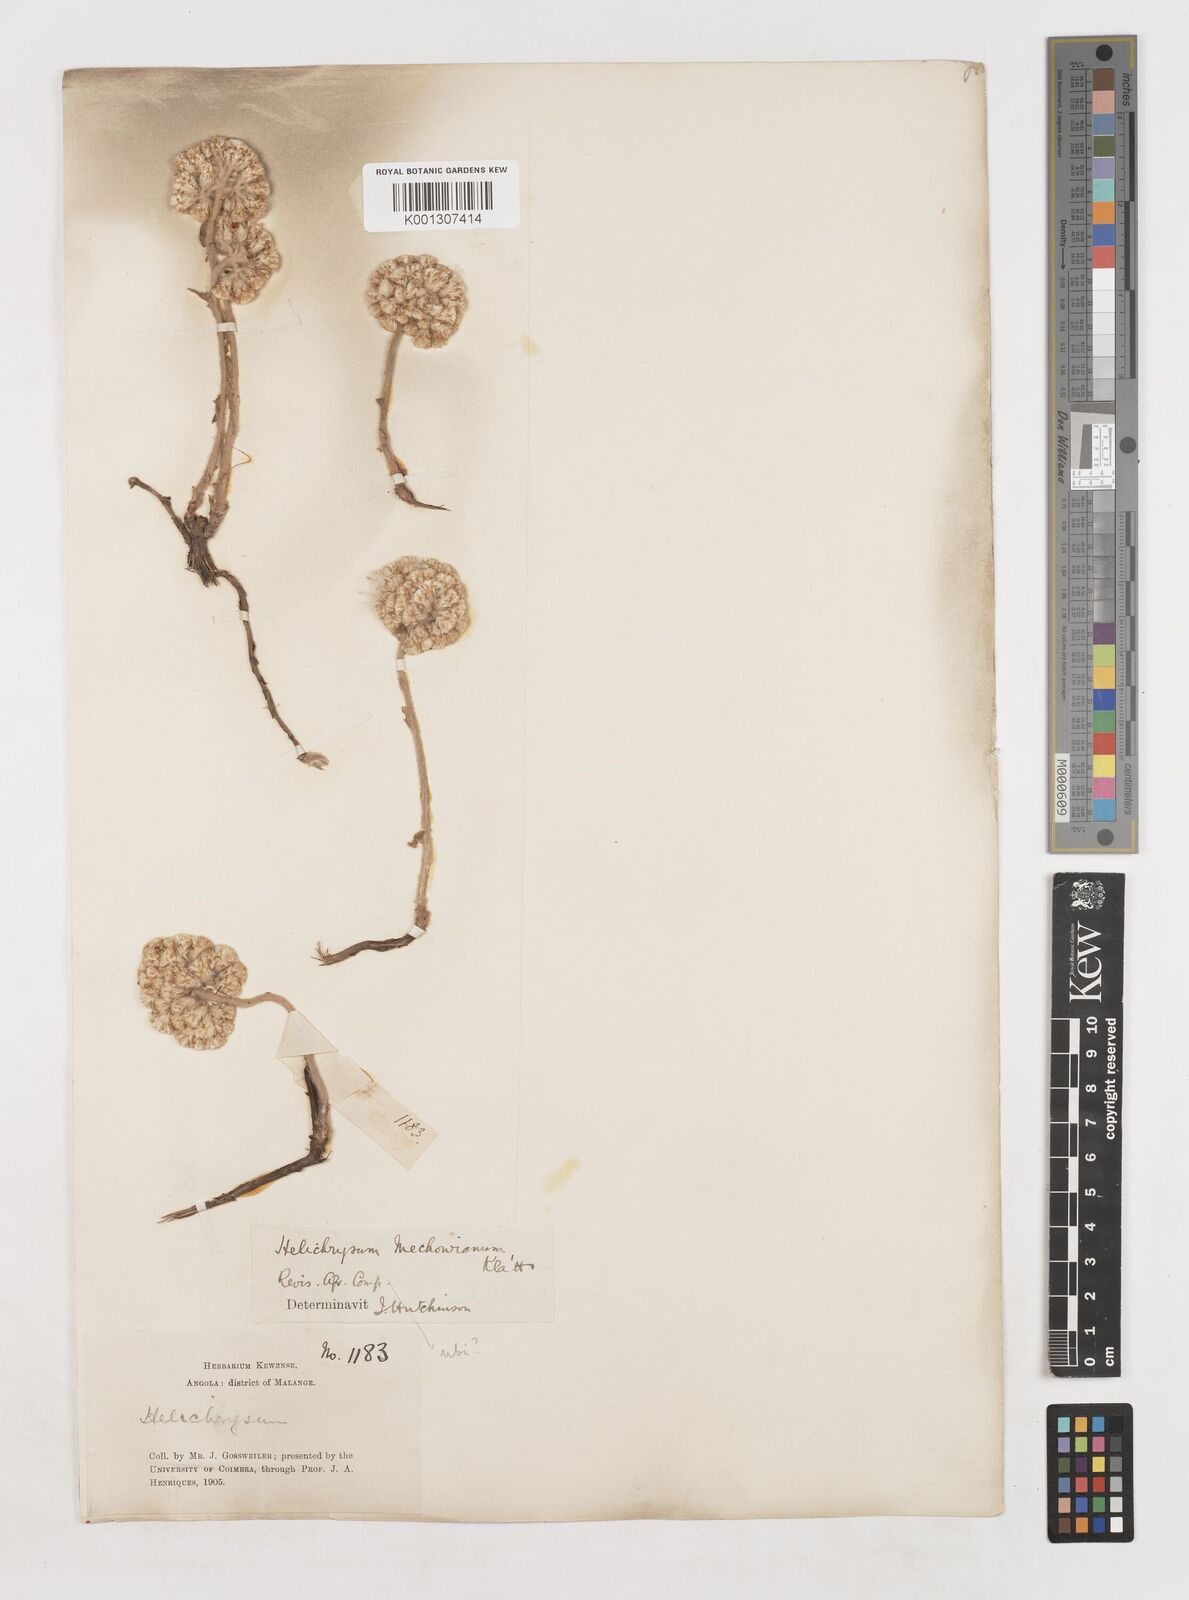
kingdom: Plantae
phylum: Tracheophyta
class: Magnoliopsida
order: Asterales
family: Asteraceae
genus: Helichrysum
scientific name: Helichrysum mechowianum
